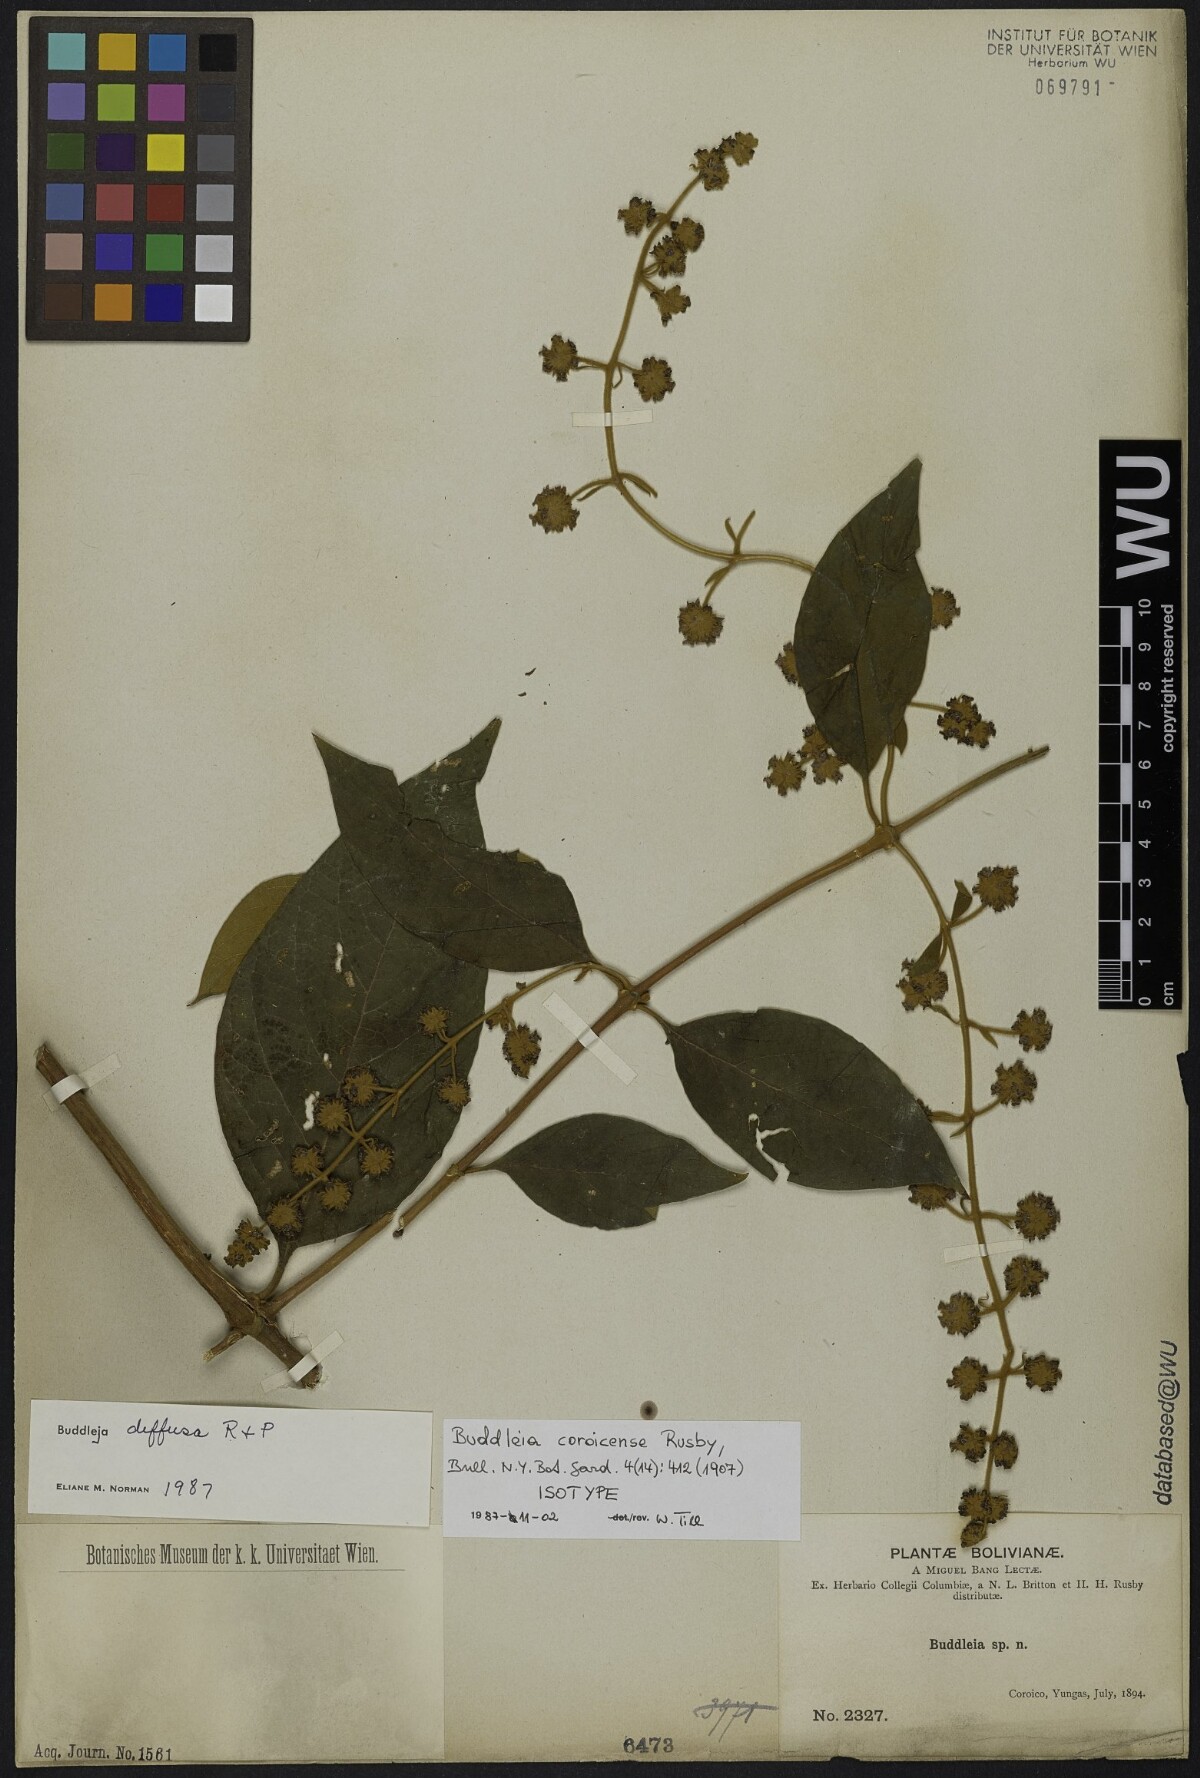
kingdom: Plantae
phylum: Tracheophyta
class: Magnoliopsida
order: Lamiales
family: Scrophulariaceae
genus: Buddleja
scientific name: Buddleja diffusa
